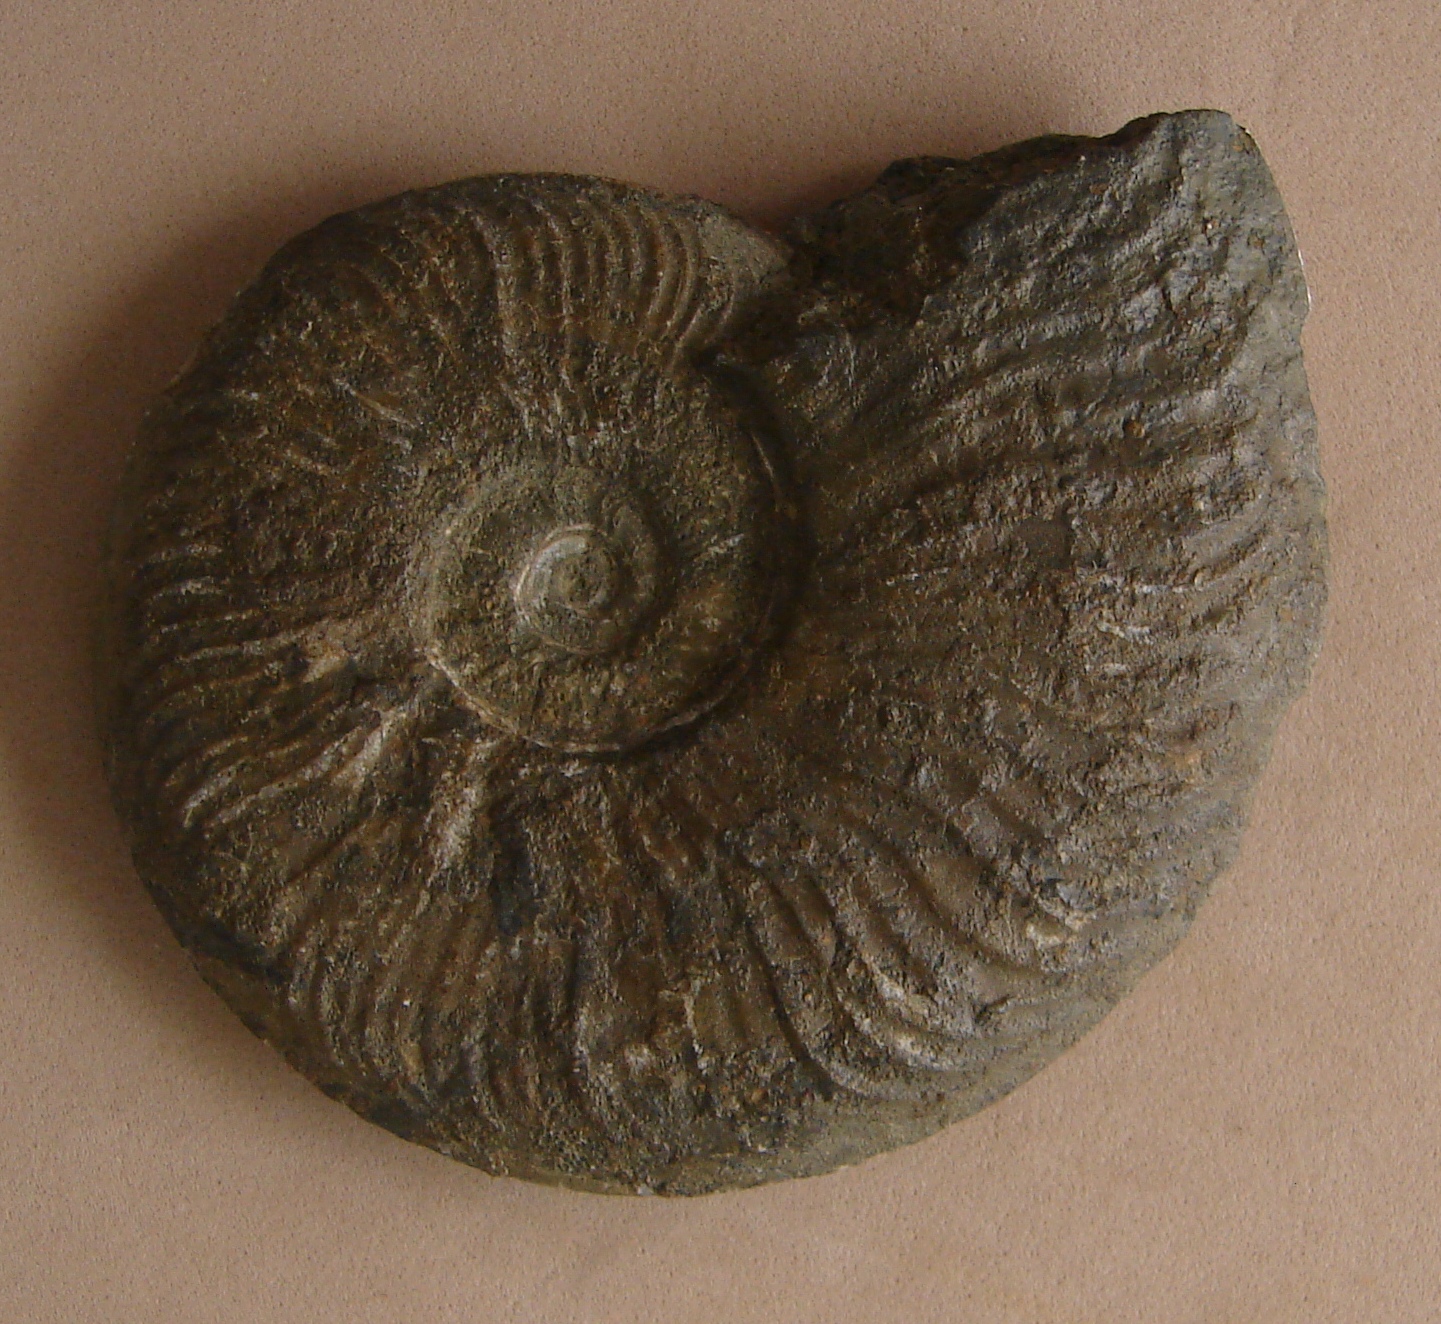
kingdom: Animalia
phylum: Mollusca
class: Cephalopoda
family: Hildoceratidae
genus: Pleydellia
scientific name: Pleydellia Cotteswoldia subcompta
